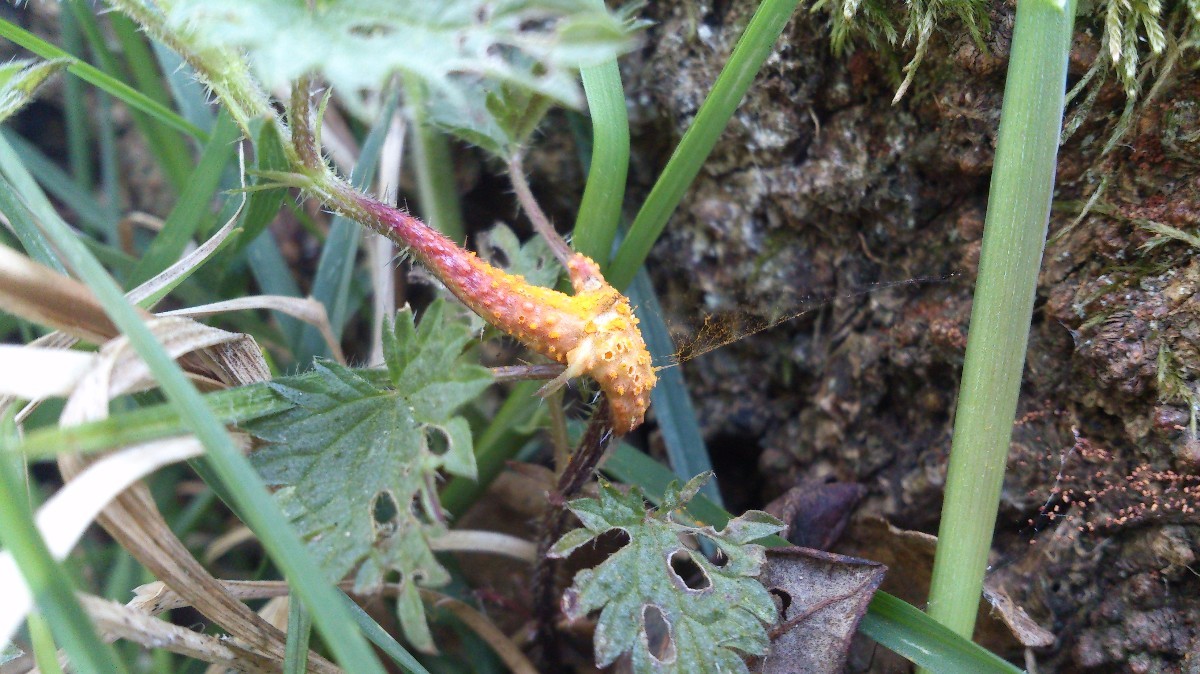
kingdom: Fungi
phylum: Basidiomycota
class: Pucciniomycetes
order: Pucciniales
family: Pucciniaceae
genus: Puccinia
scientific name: Puccinia urticata
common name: nældegalle-tvecellerust
